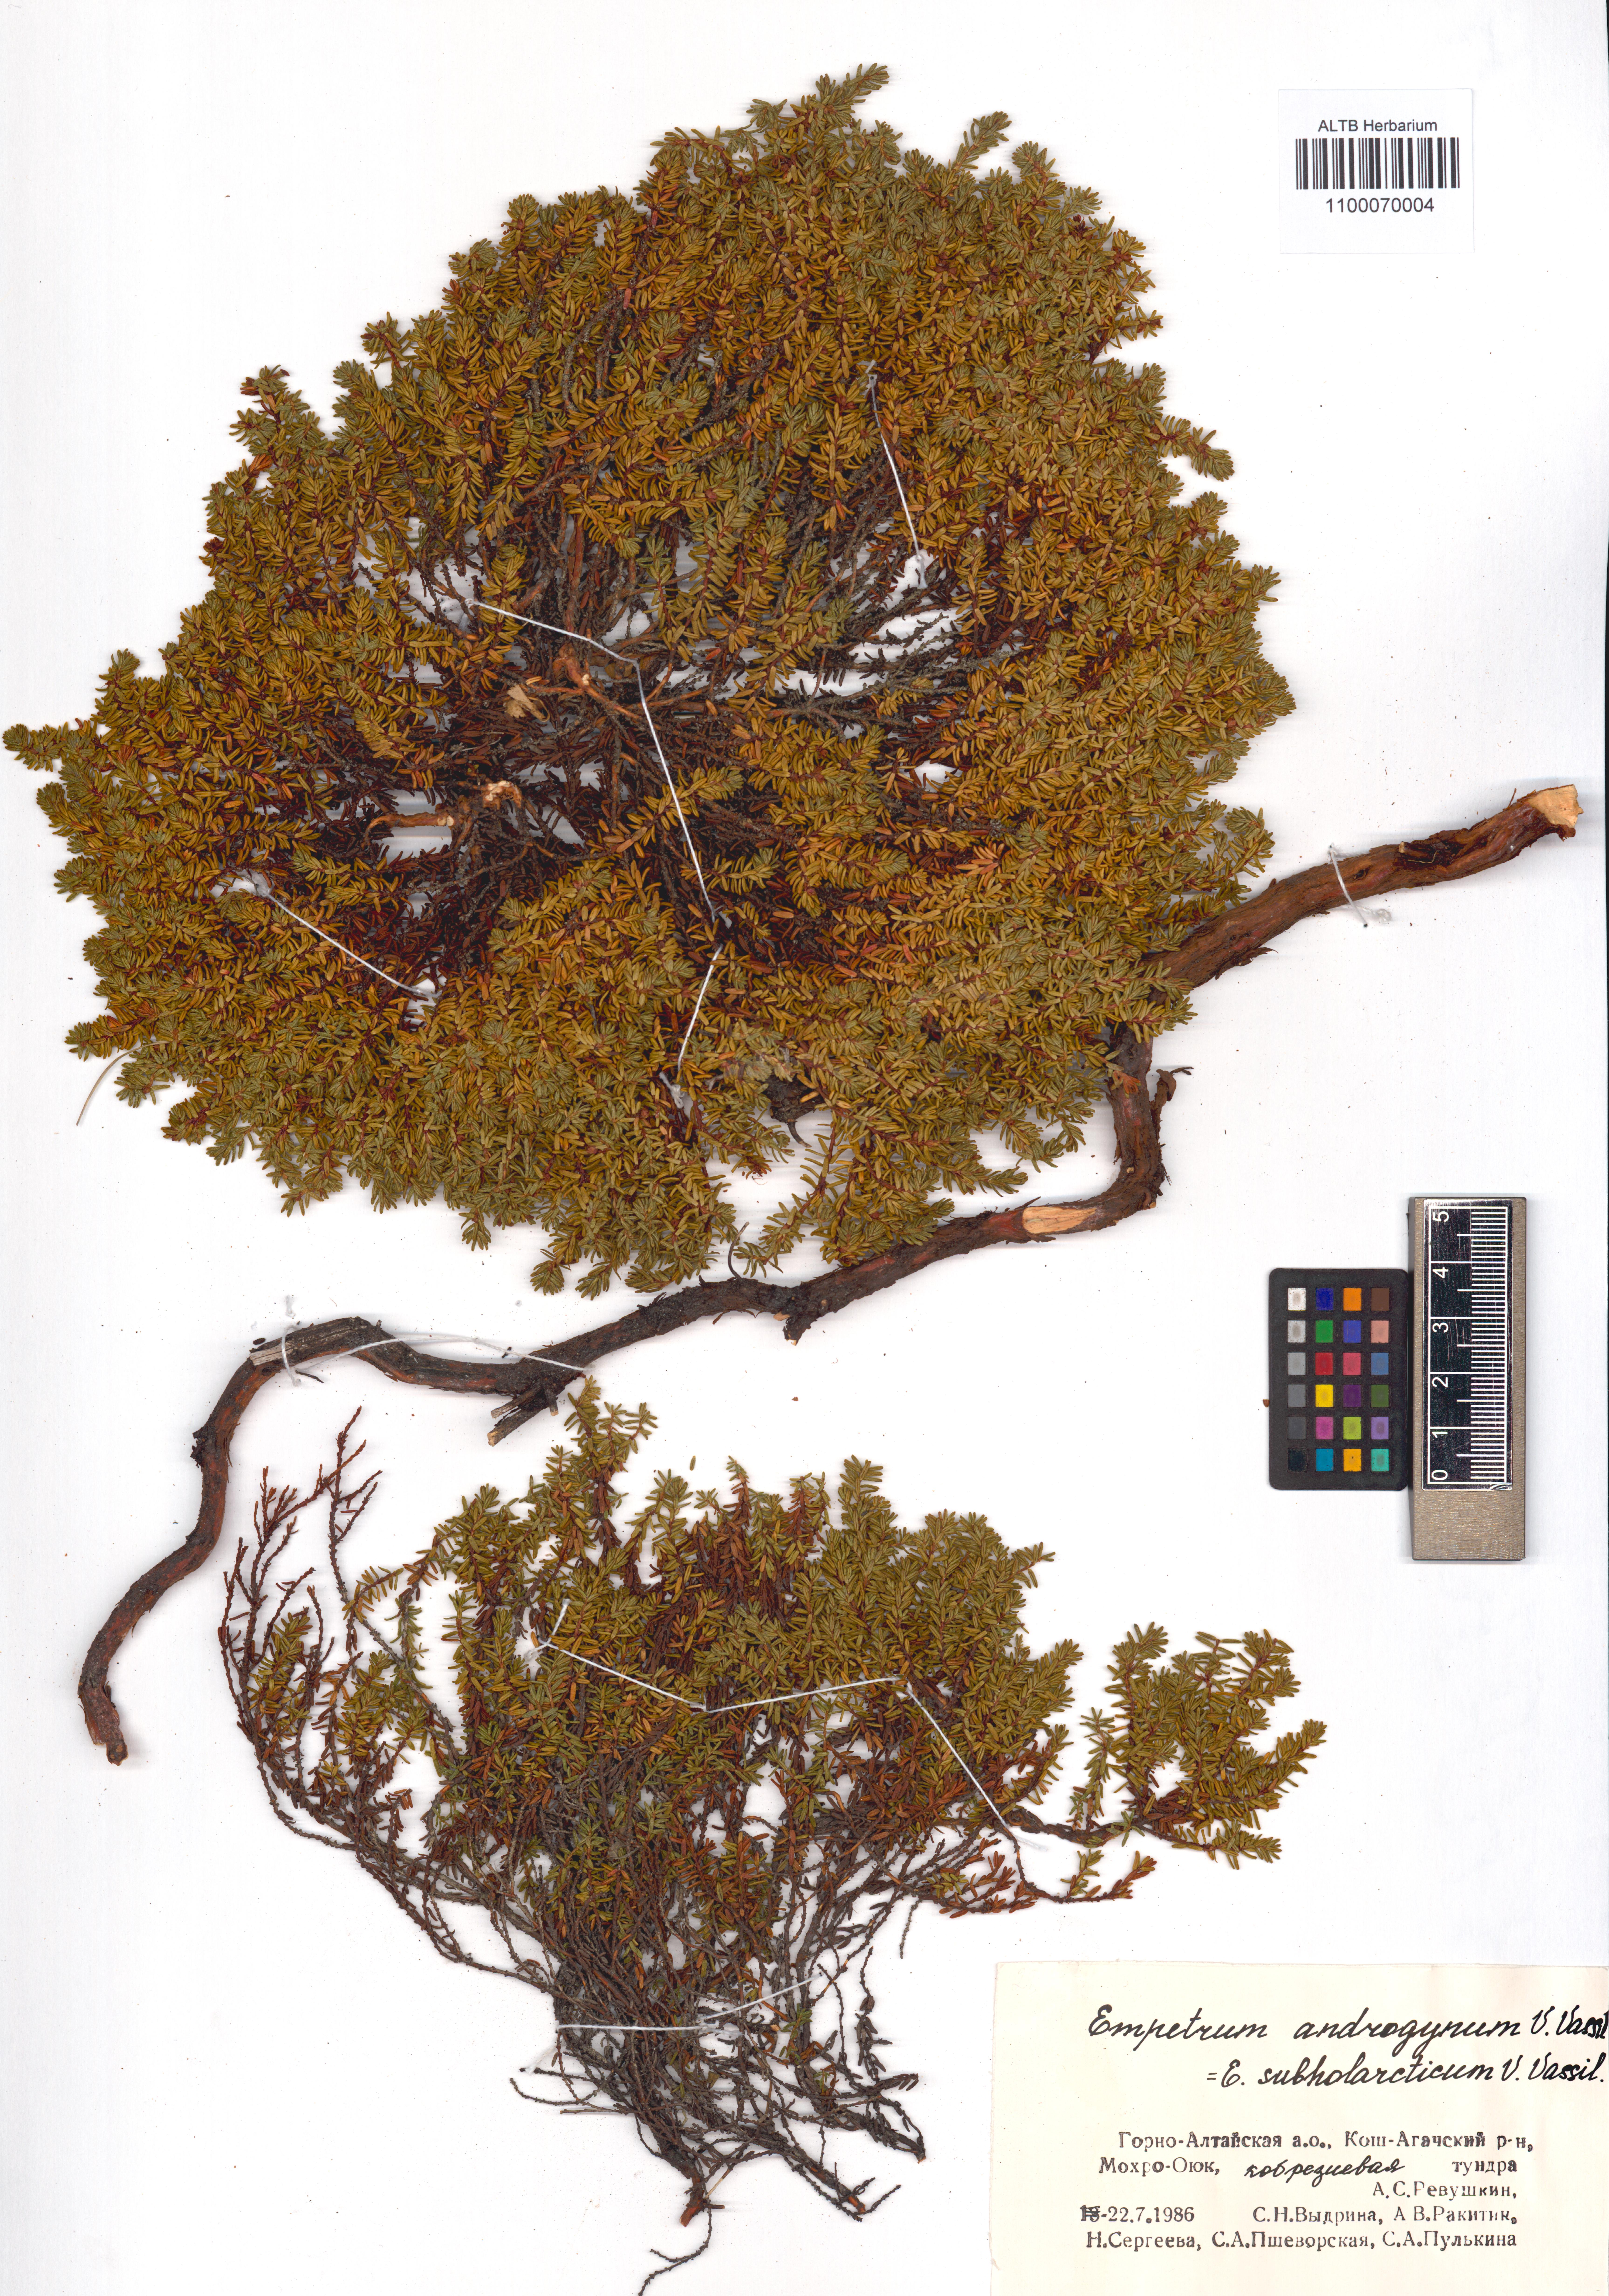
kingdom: Plantae
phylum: Tracheophyta
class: Magnoliopsida
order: Ericales
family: Ericaceae
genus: Empetrum
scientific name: Empetrum nigrum
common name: Black crowberry
